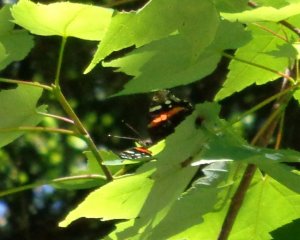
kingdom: Animalia
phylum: Arthropoda
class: Insecta
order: Lepidoptera
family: Nymphalidae
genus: Vanessa
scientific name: Vanessa atalanta
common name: Red Admiral
